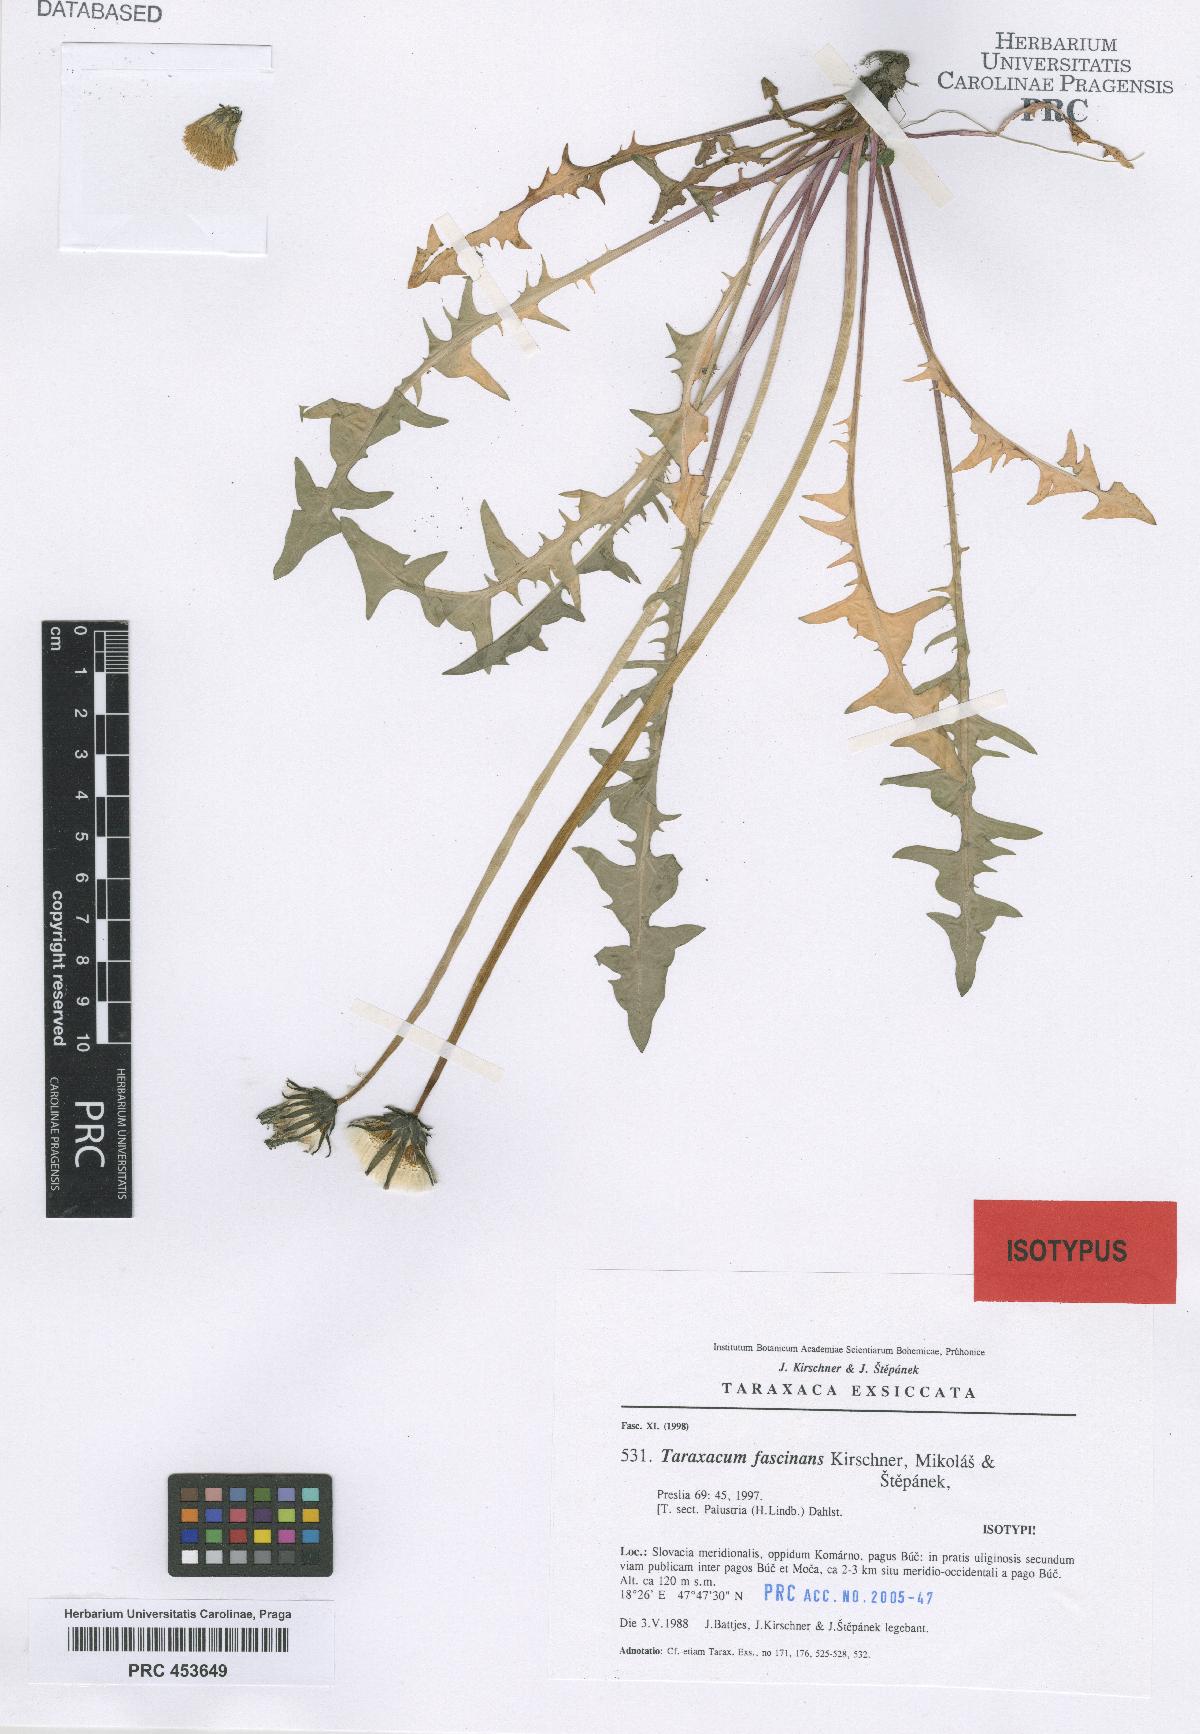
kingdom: Plantae
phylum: Tracheophyta
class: Magnoliopsida
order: Asterales
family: Asteraceae
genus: Taraxacum
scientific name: Taraxacum fascinans
